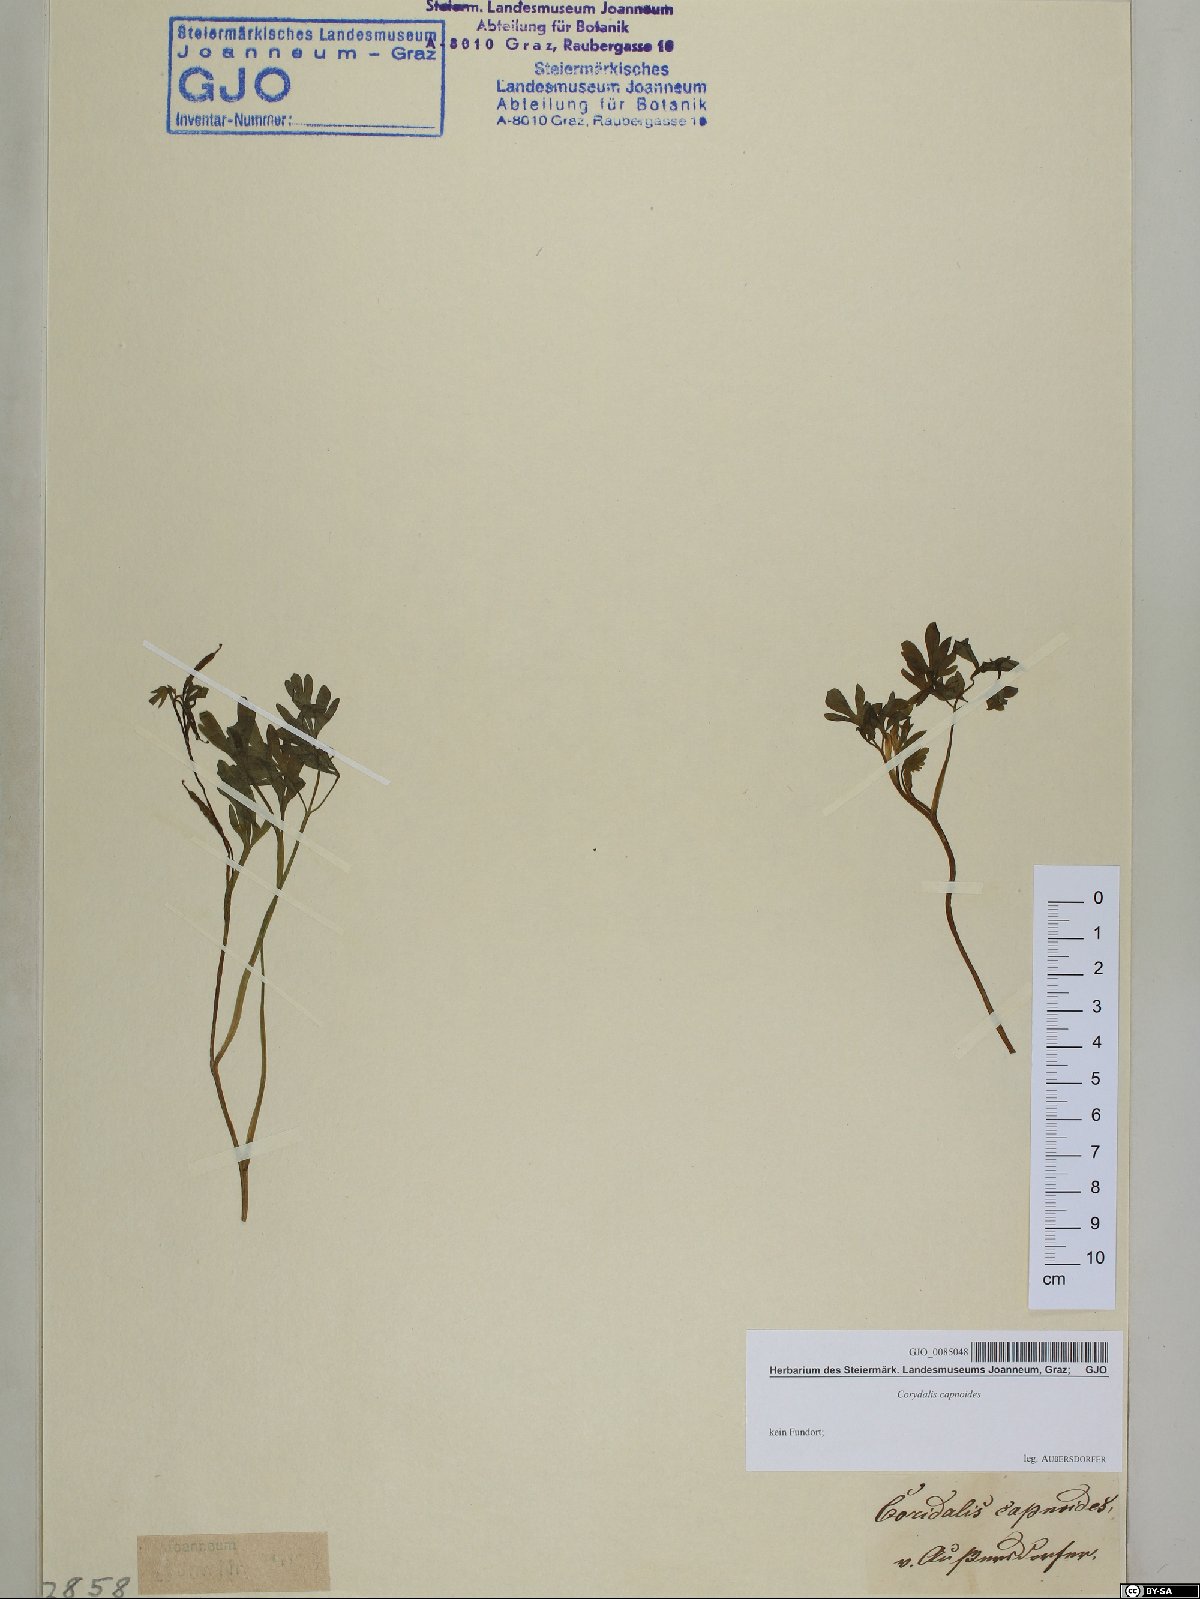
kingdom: Plantae
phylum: Tracheophyta
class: Magnoliopsida
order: Ranunculales
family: Papaveraceae
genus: Corydalis
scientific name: Corydalis capnoides
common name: Beaked corydalis
